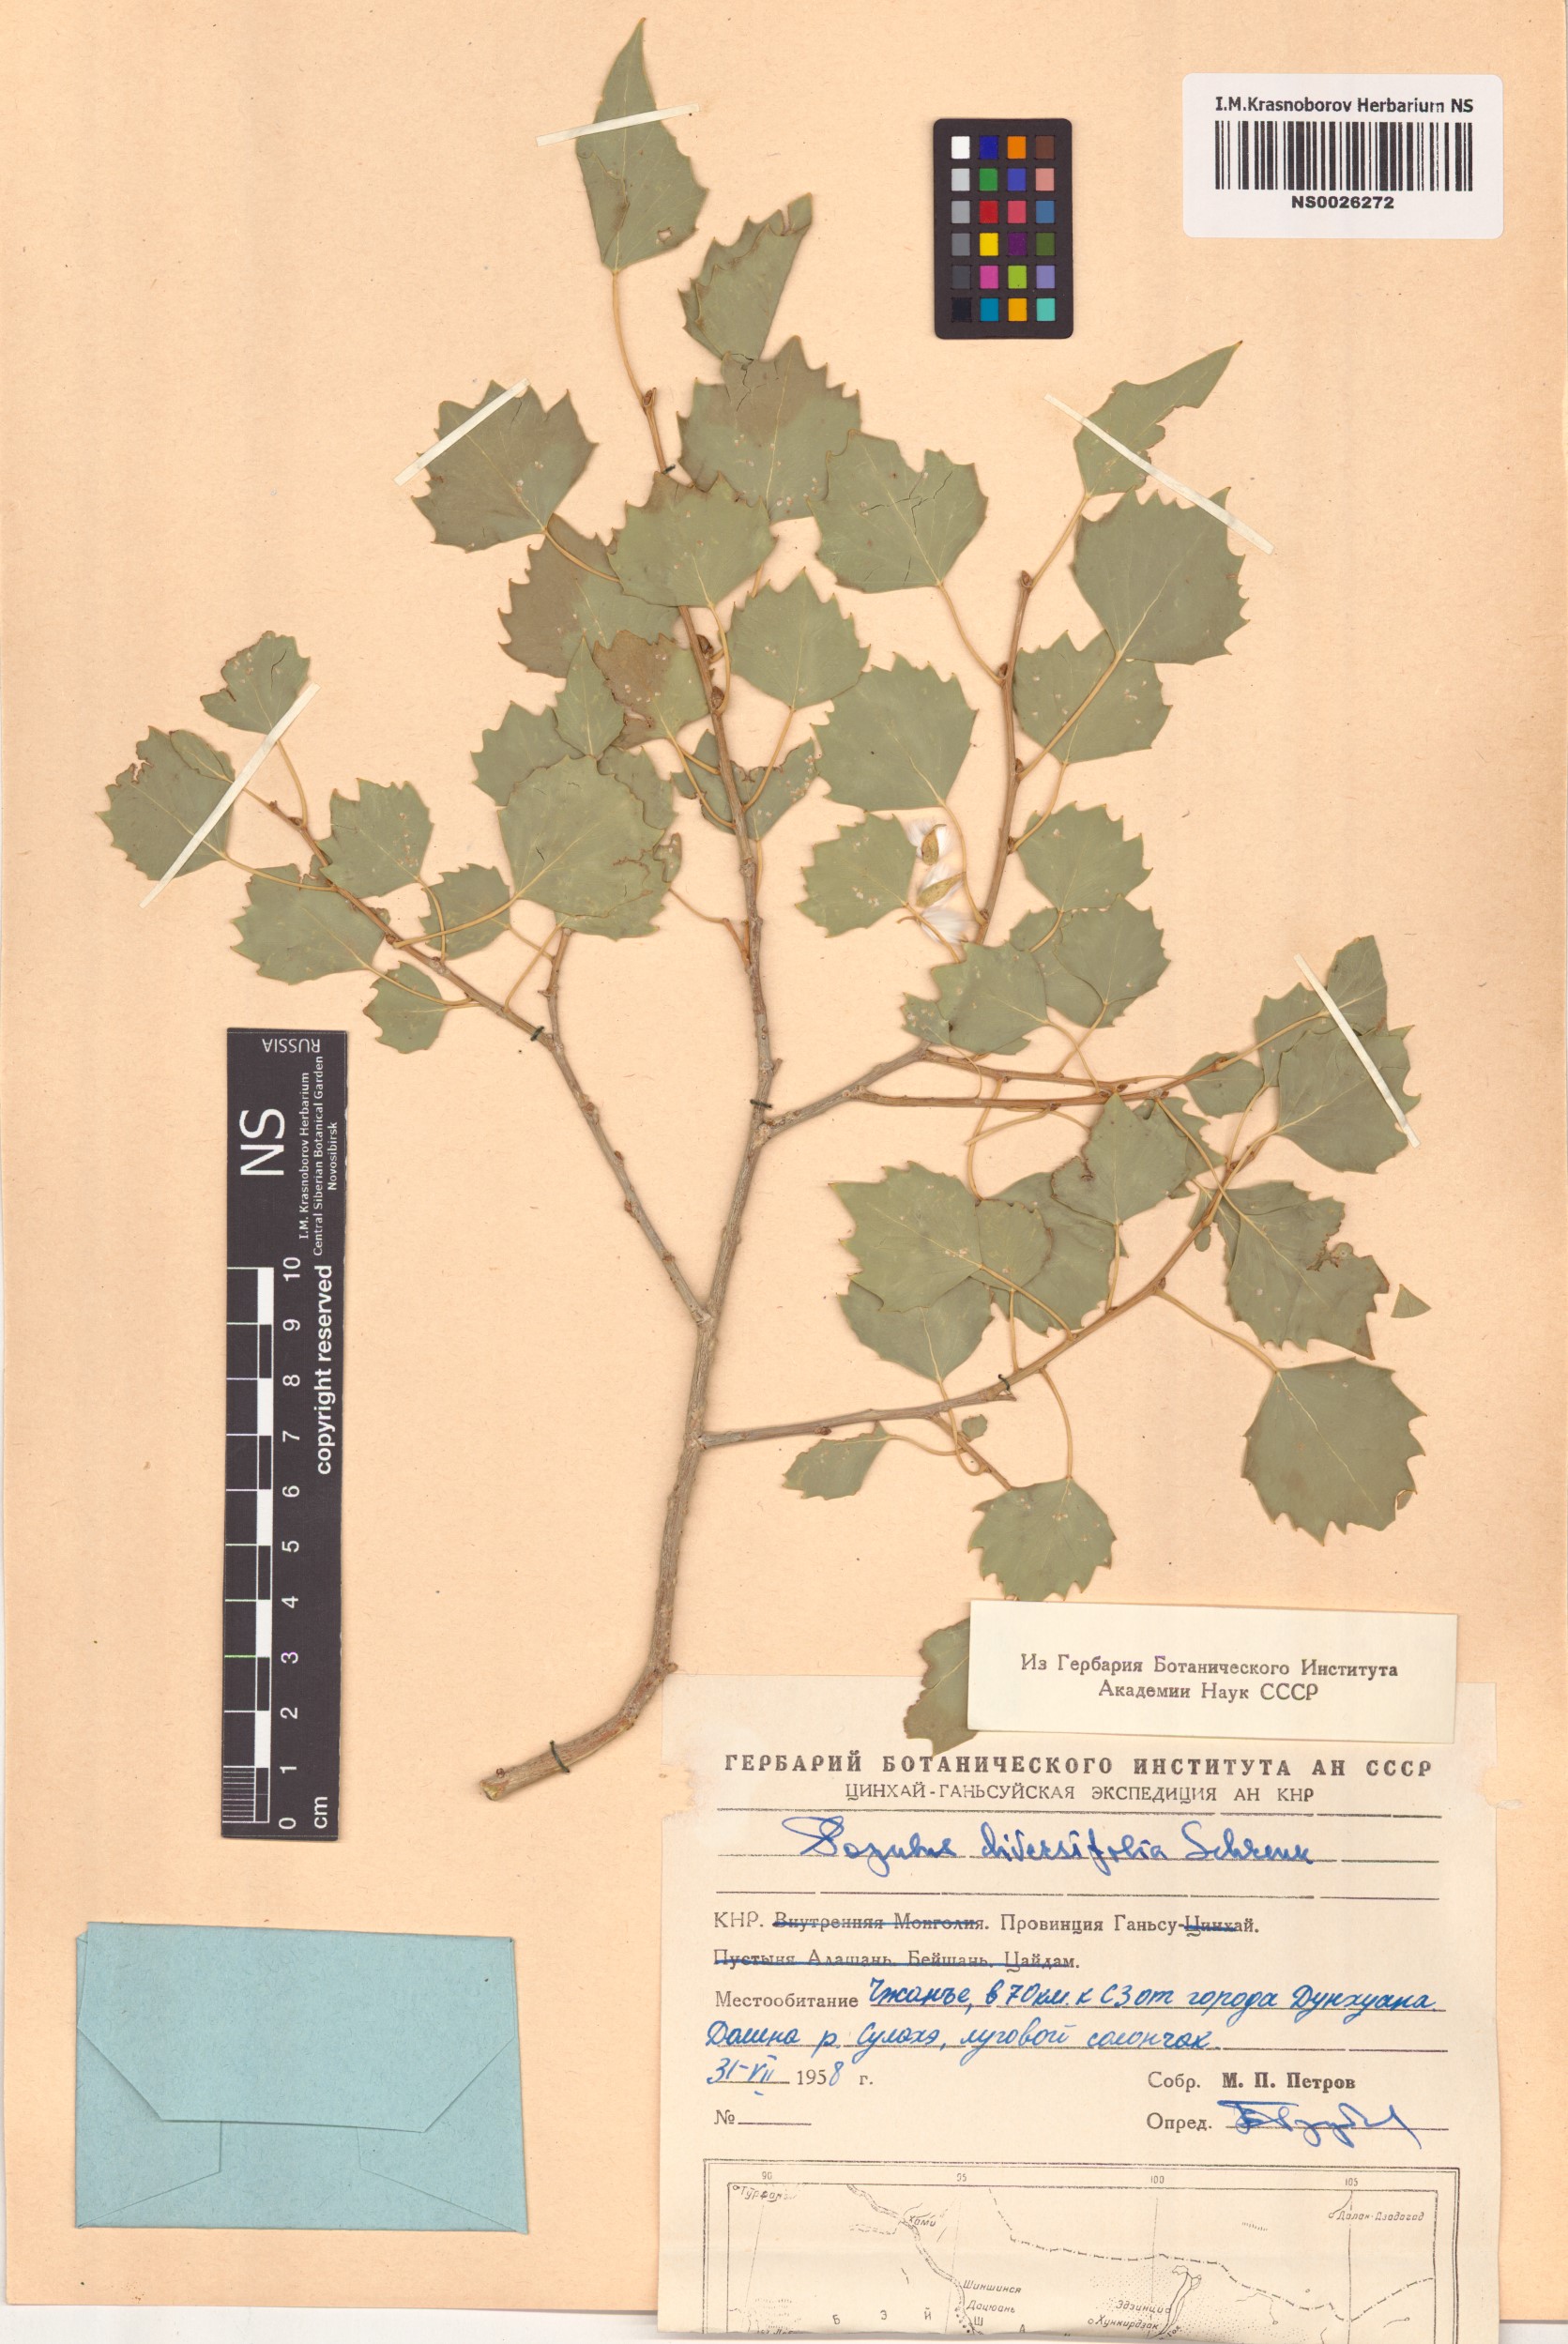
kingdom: Plantae
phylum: Tracheophyta
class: Magnoliopsida
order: Malpighiales
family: Salicaceae
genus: Populus
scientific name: Populus euphratica
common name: Euphrates poplar
